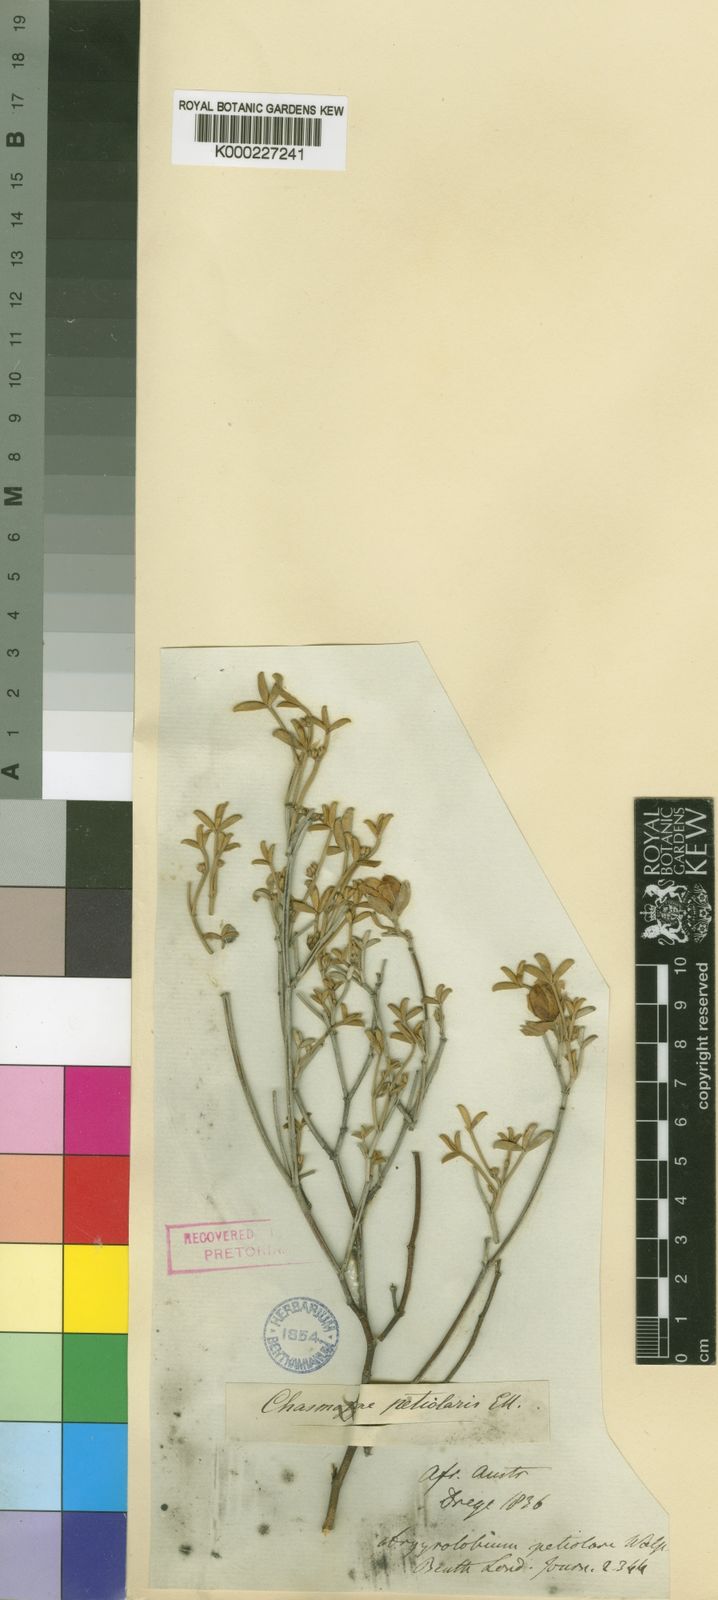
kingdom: Plantae
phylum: Tracheophyta
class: Magnoliopsida
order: Fabales
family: Fabaceae
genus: Argyrolobium
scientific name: Argyrolobium
